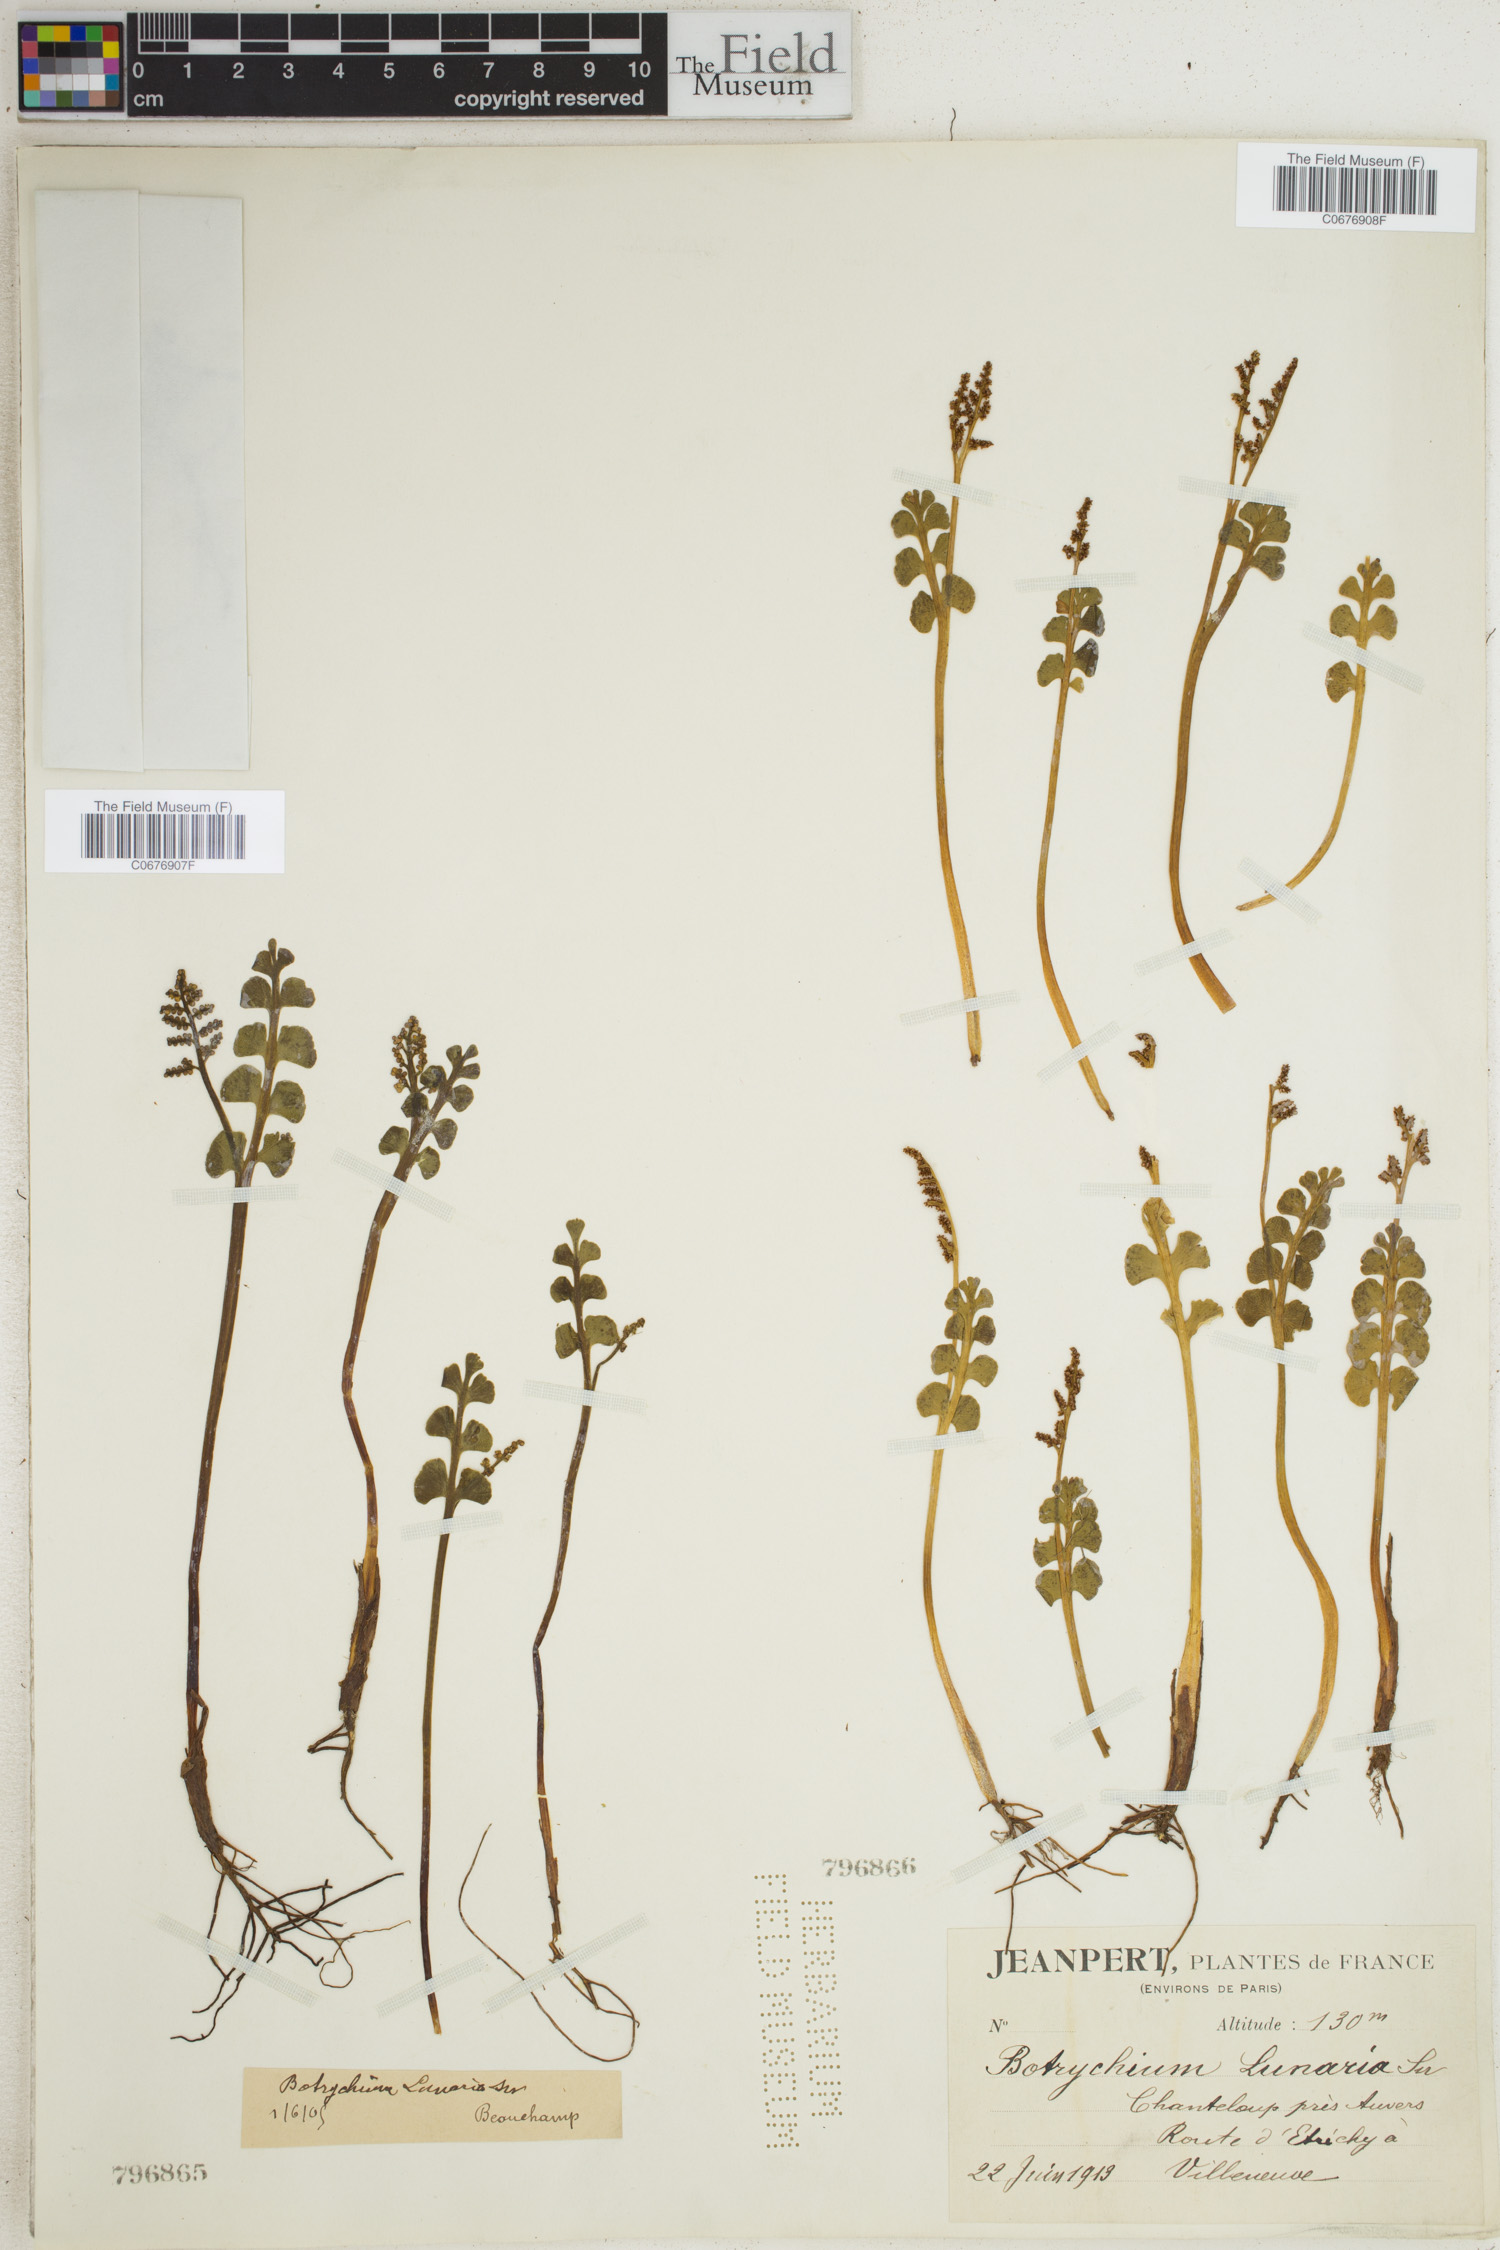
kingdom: Plantae
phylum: Tracheophyta
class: Polypodiopsida
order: Ophioglossales
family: Ophioglossaceae
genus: Botrychium
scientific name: Botrychium lunaria
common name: Moonwort
